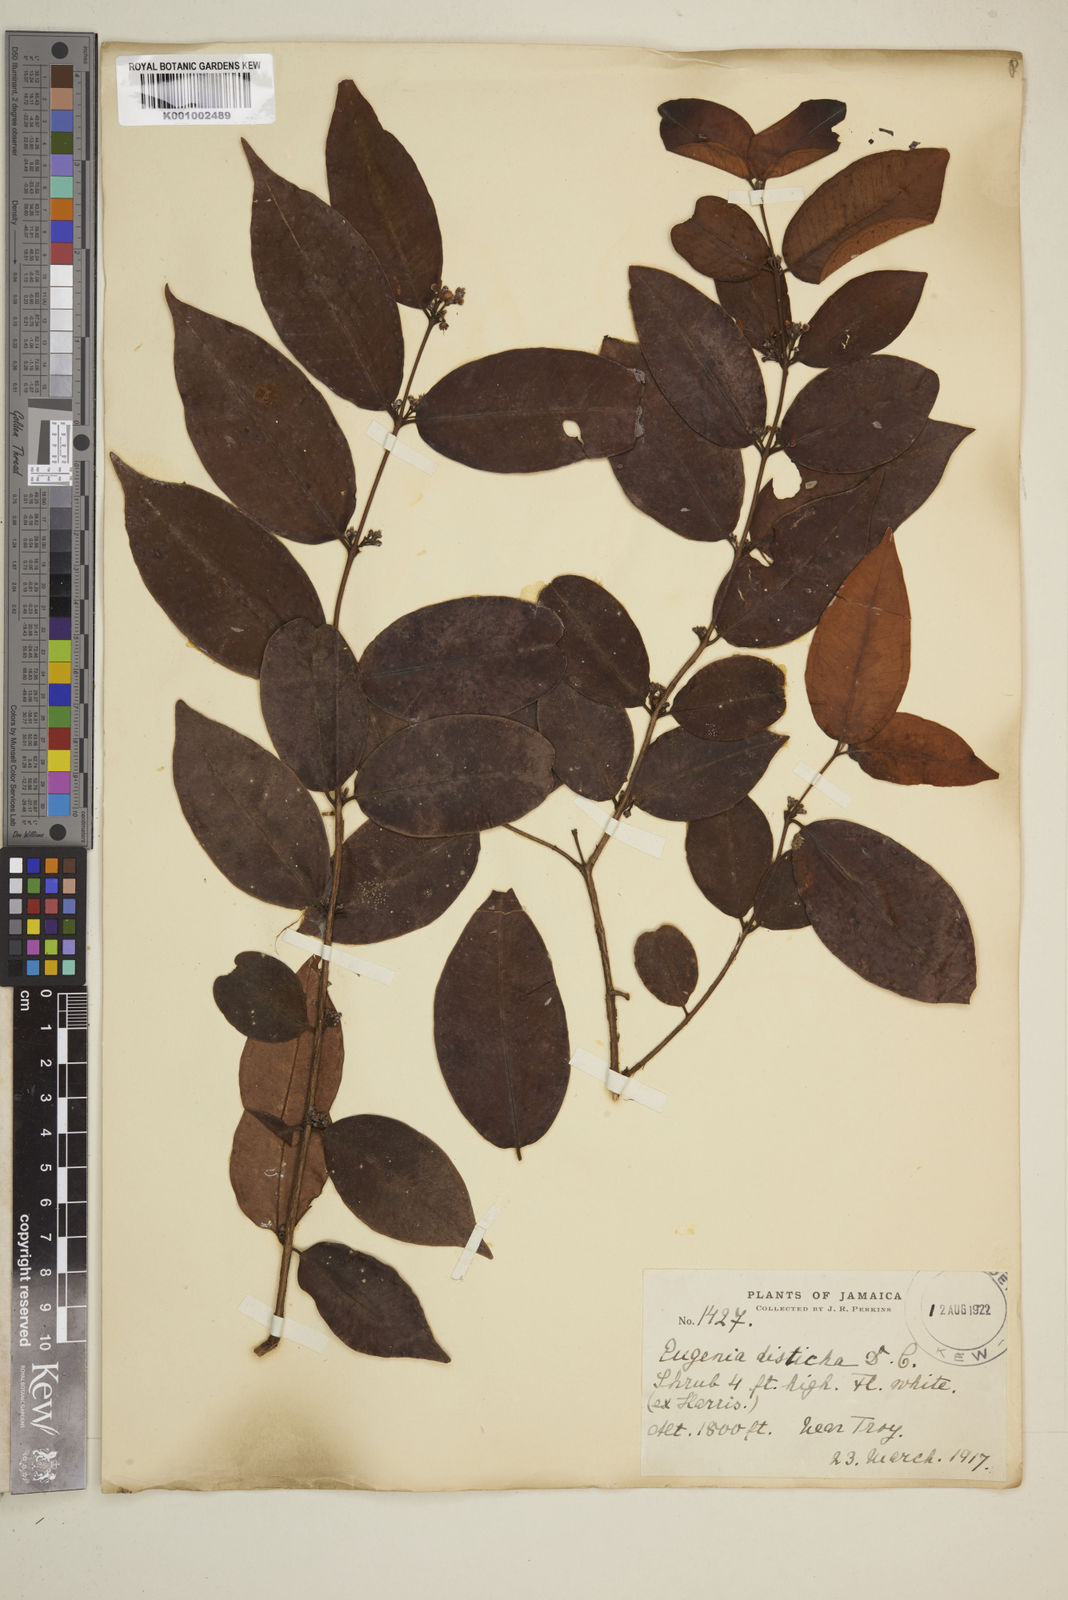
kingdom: Plantae
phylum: Tracheophyta
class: Magnoliopsida
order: Myrtales
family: Myrtaceae
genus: Eugenia
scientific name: Eugenia disticha
